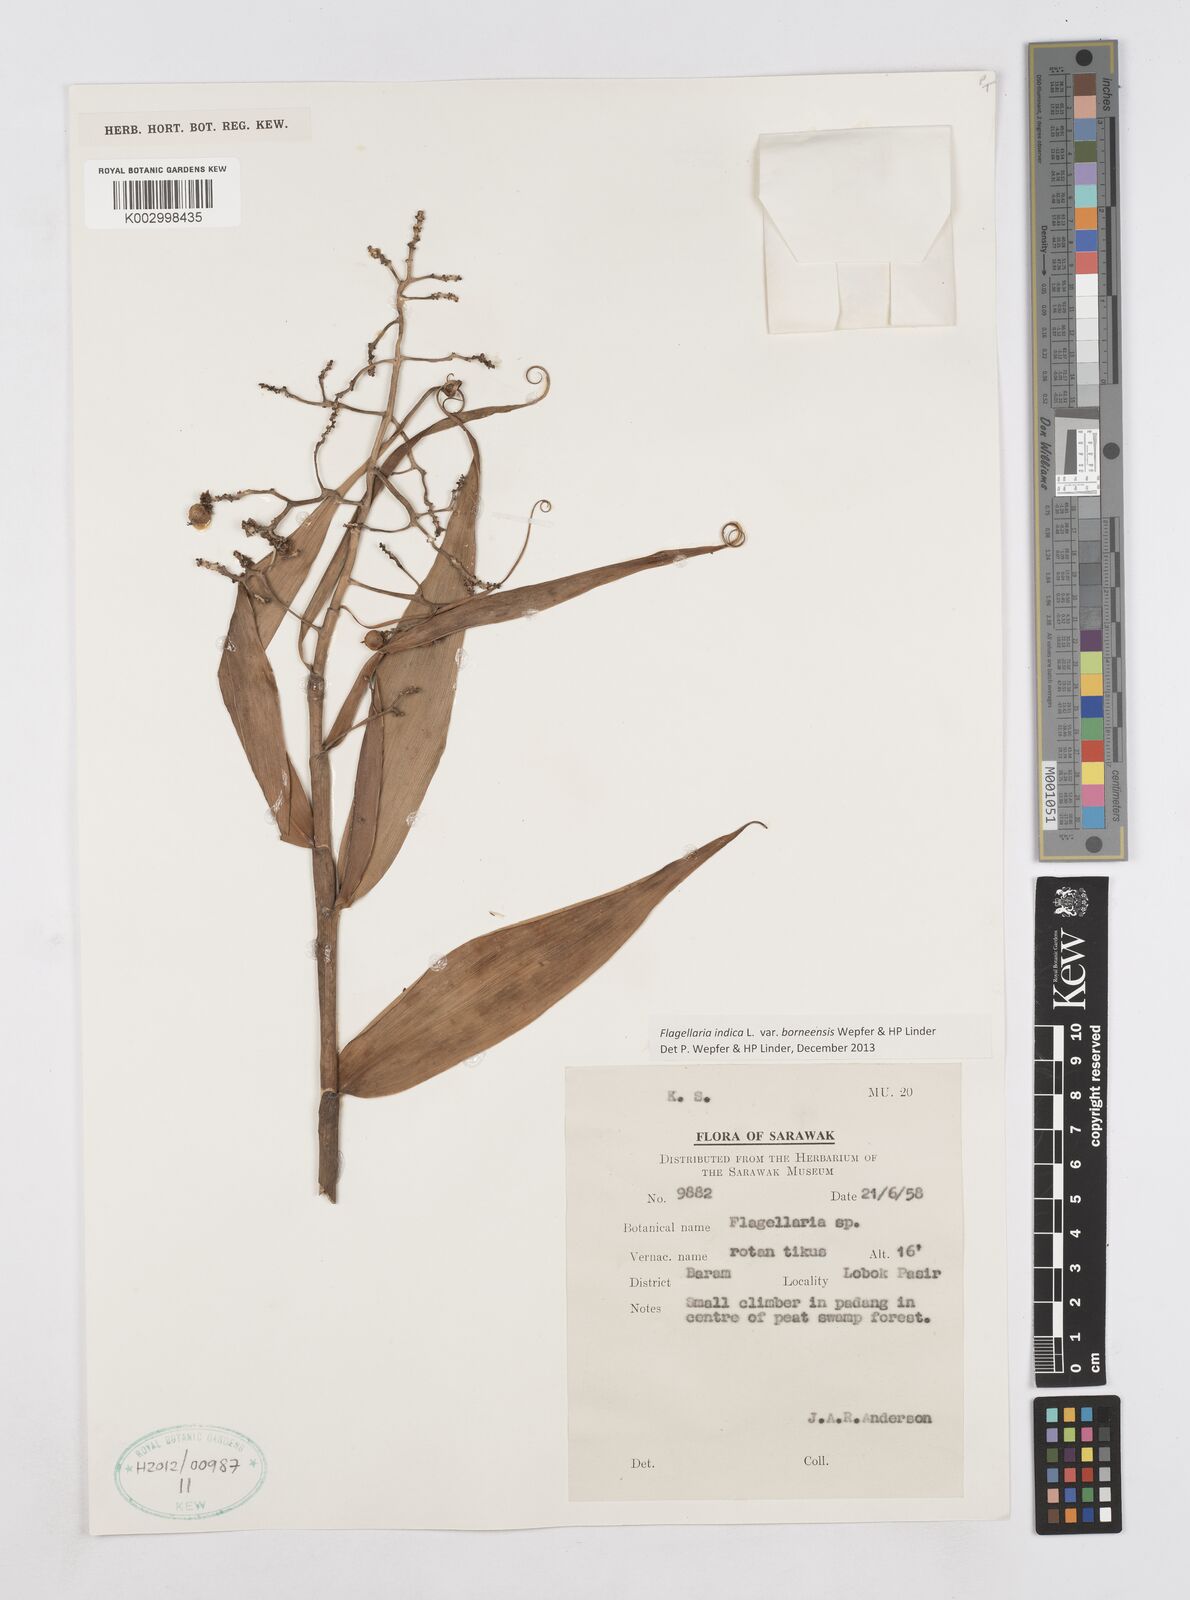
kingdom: Plantae
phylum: Tracheophyta
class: Liliopsida
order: Poales
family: Flagellariaceae
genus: Flagellaria
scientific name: Flagellaria indica
